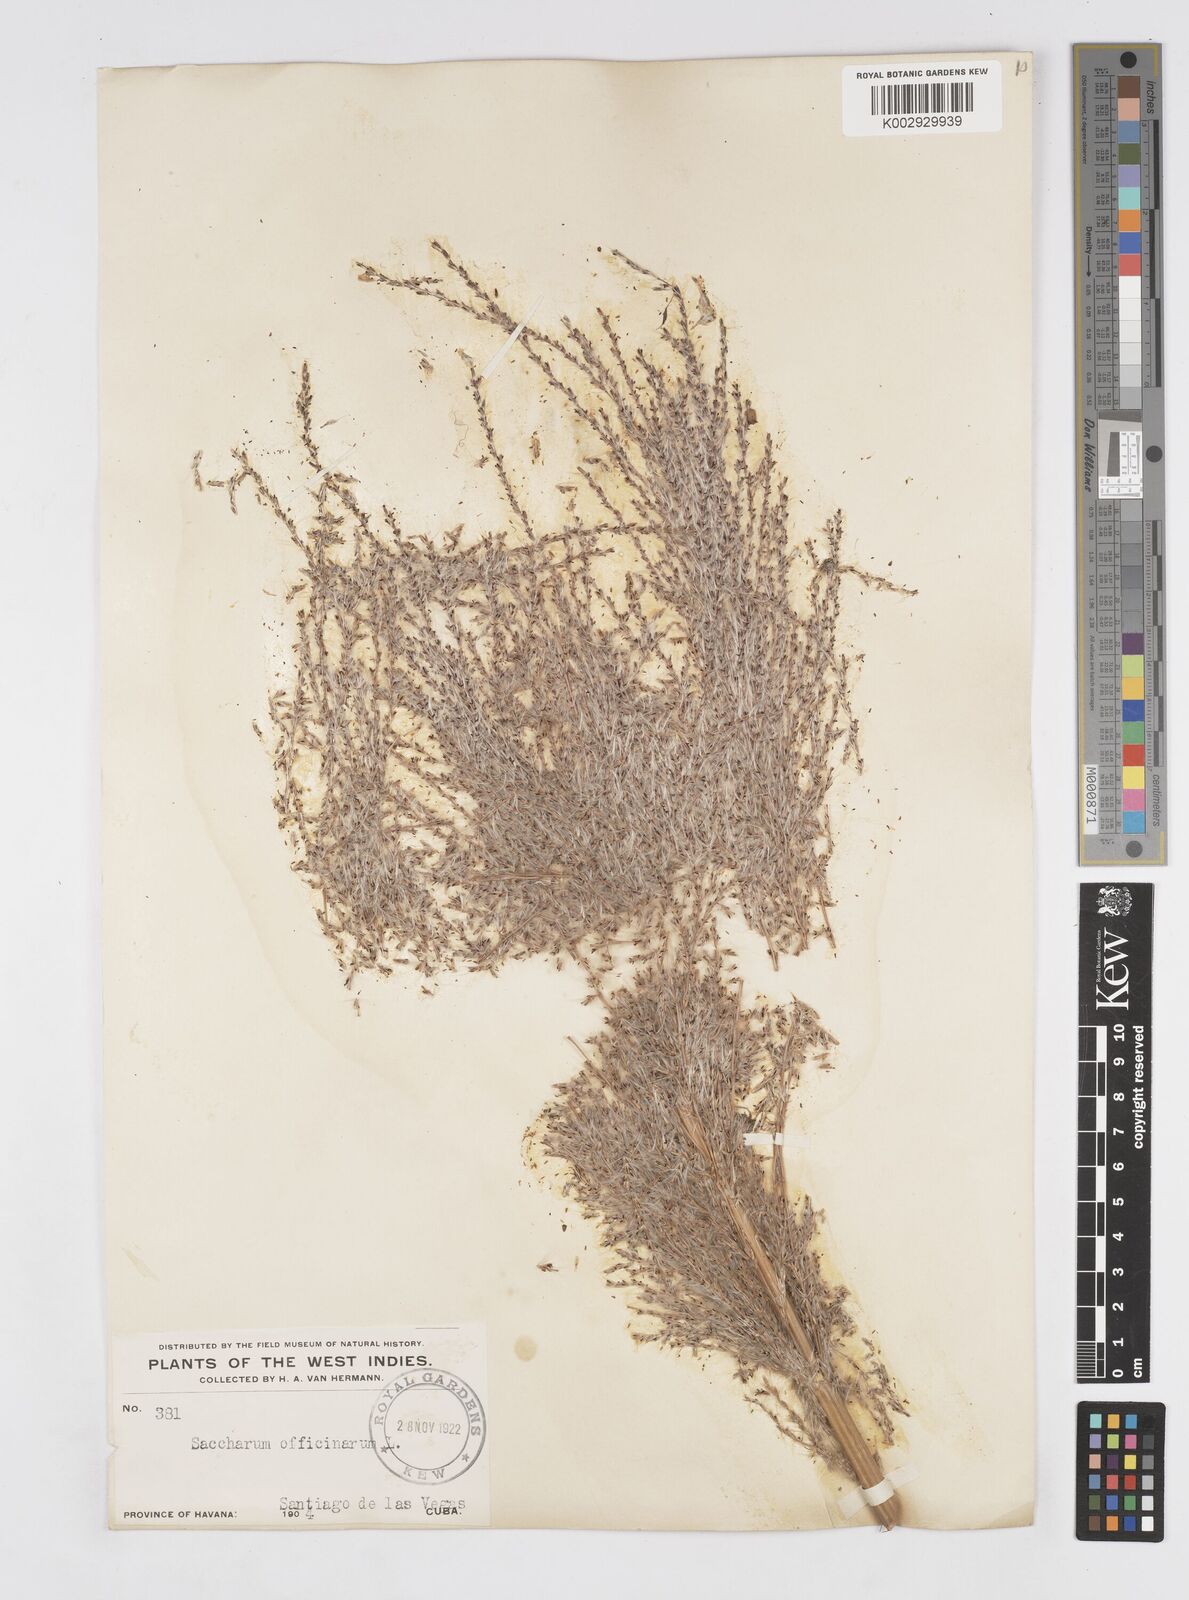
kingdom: Plantae
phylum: Tracheophyta
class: Liliopsida
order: Poales
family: Poaceae
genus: Saccharum
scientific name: Saccharum officinarum
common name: Sugarcane
